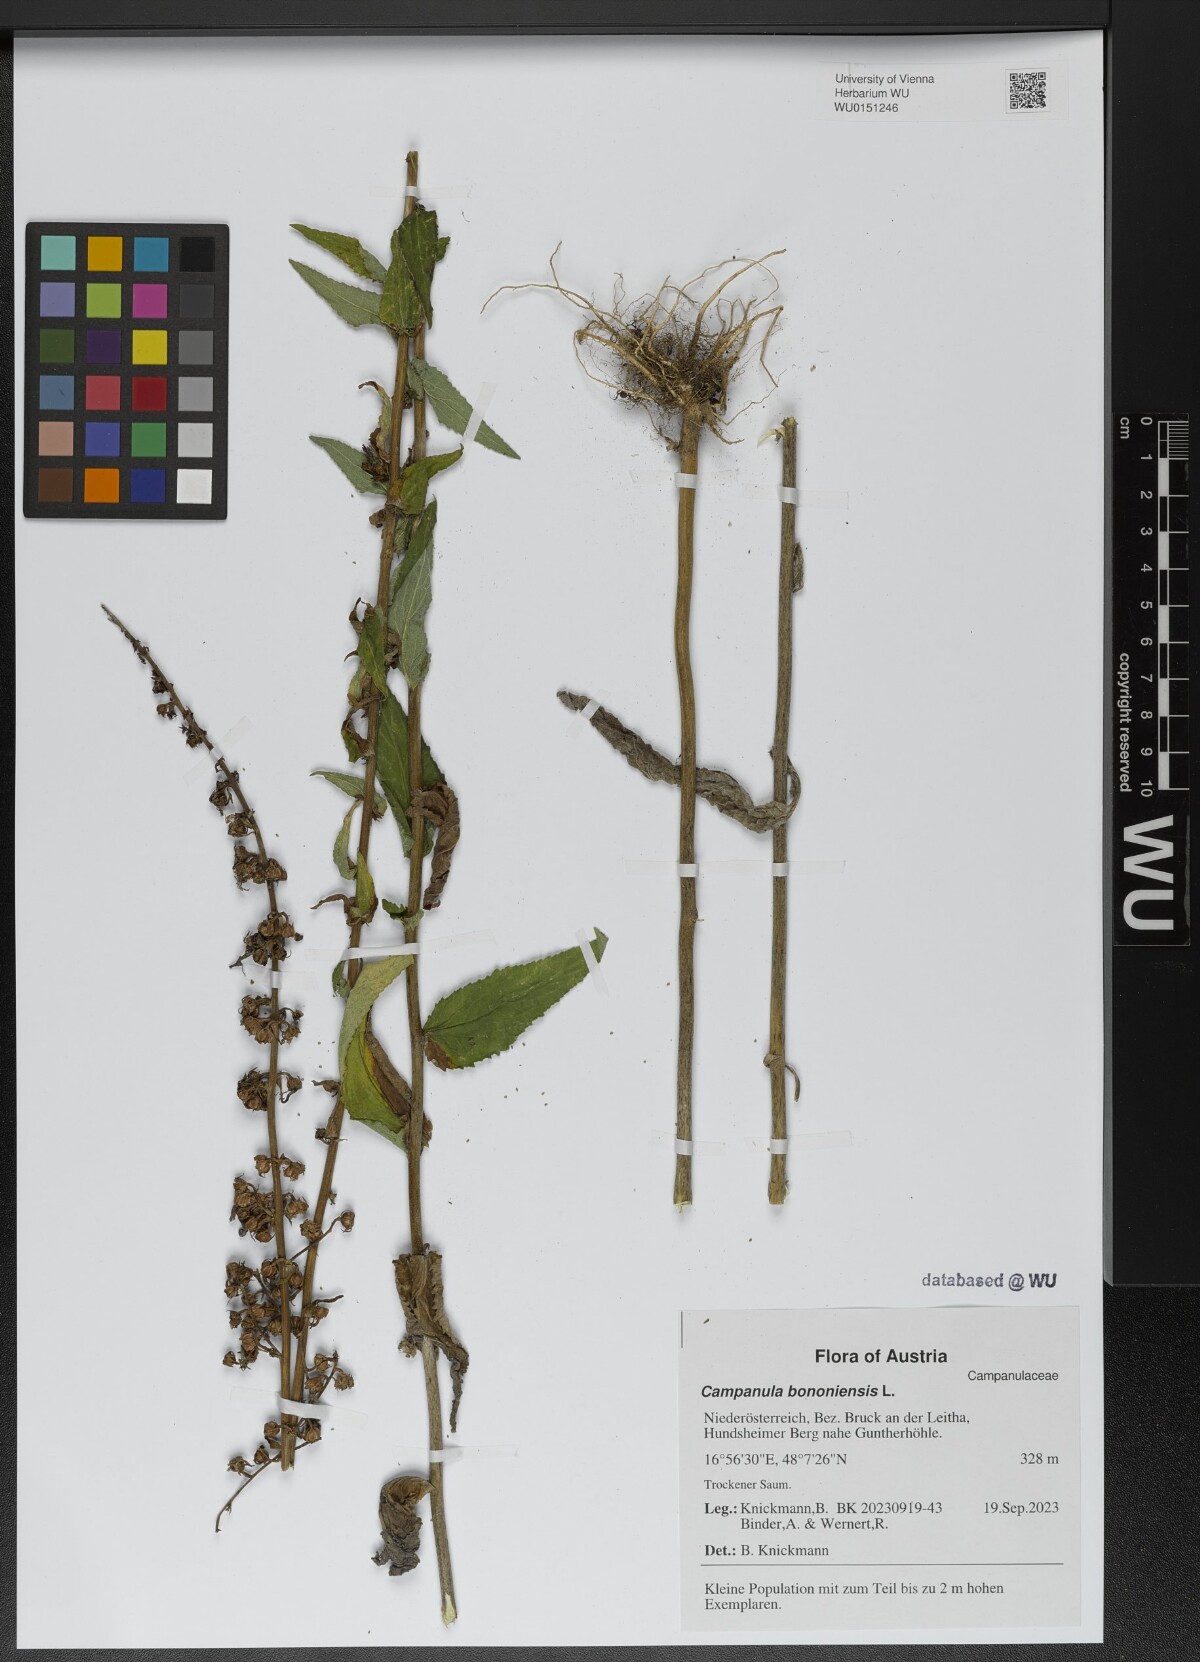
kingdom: Plantae
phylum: Tracheophyta
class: Magnoliopsida
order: Asterales
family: Campanulaceae
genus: Campanula
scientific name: Campanula bononiensis
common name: Pale bellflower
